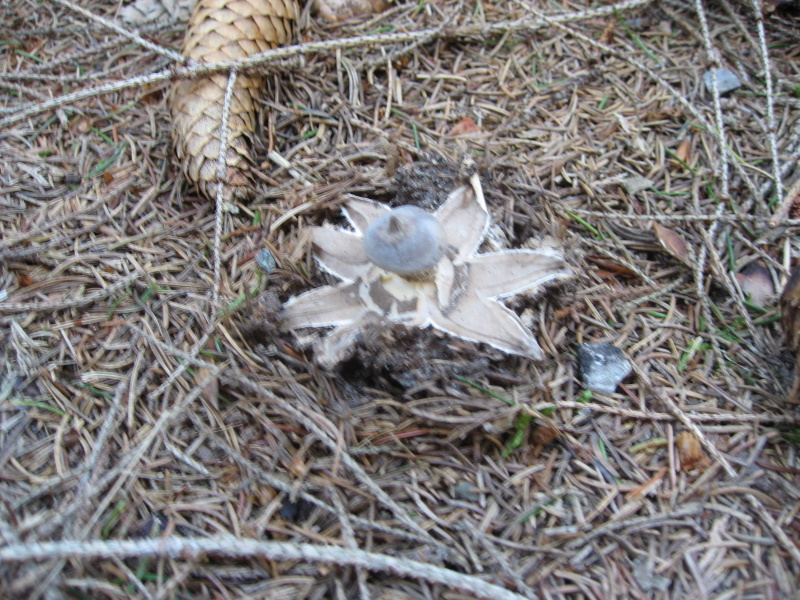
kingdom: Fungi
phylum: Basidiomycota
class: Agaricomycetes
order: Geastrales
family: Geastraceae
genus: Geastrum
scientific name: Geastrum pectinatum
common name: stilket stjernebold
